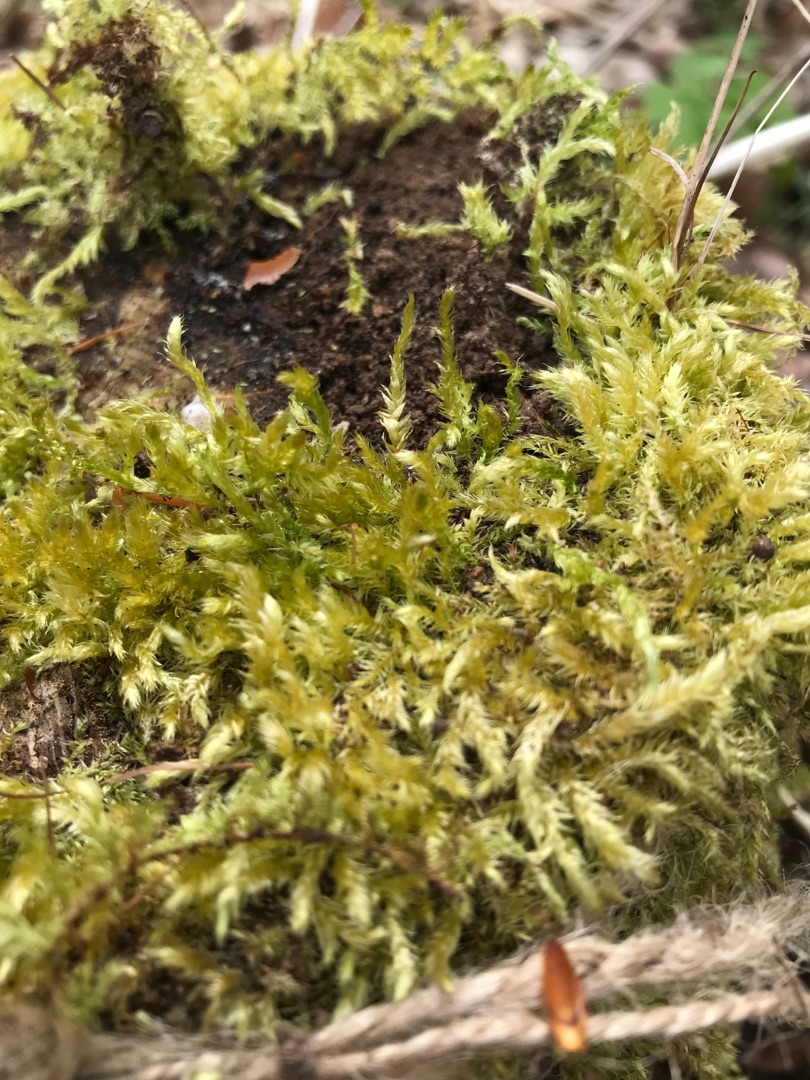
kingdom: Plantae
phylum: Bryophyta
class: Bryopsida
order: Hypnales
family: Brachytheciaceae
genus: Brachythecium
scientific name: Brachythecium rutabulum
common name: Almindelig kortkapsel
